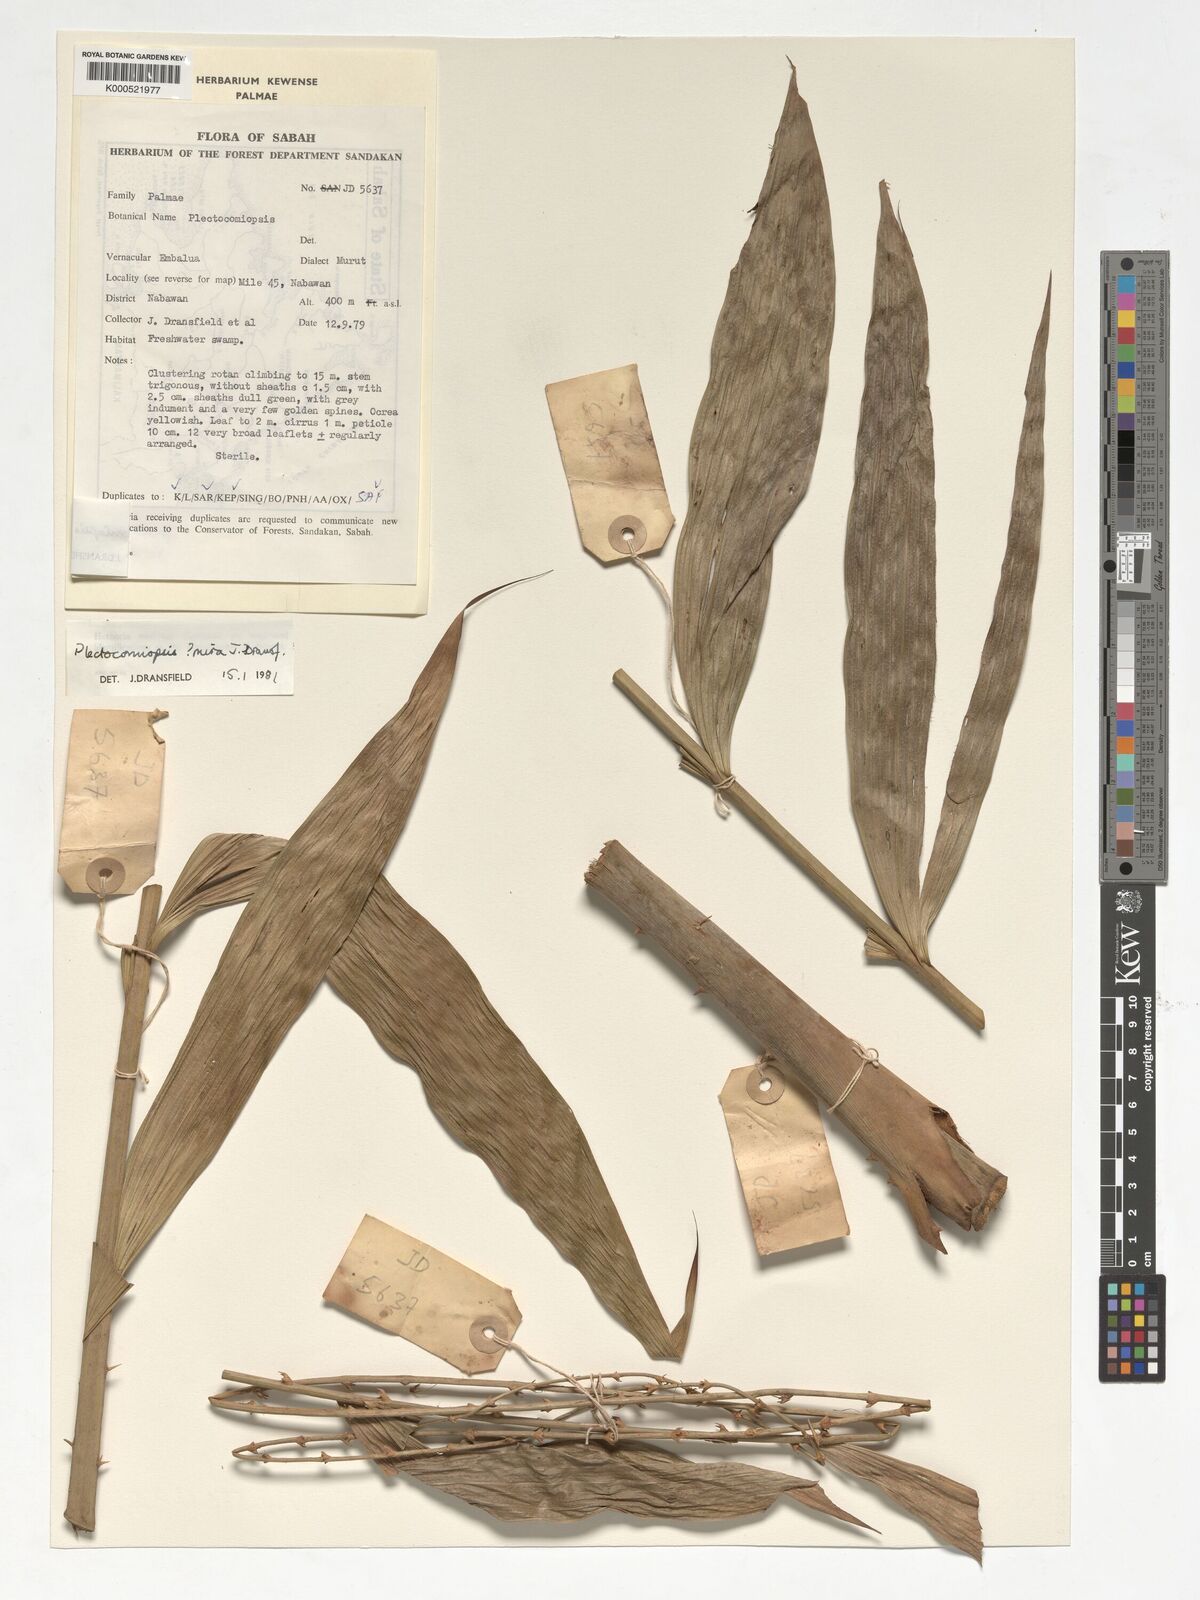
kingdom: Plantae
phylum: Tracheophyta
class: Liliopsida
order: Arecales
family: Arecaceae
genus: Plectocomiopsis
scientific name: Plectocomiopsis mira
